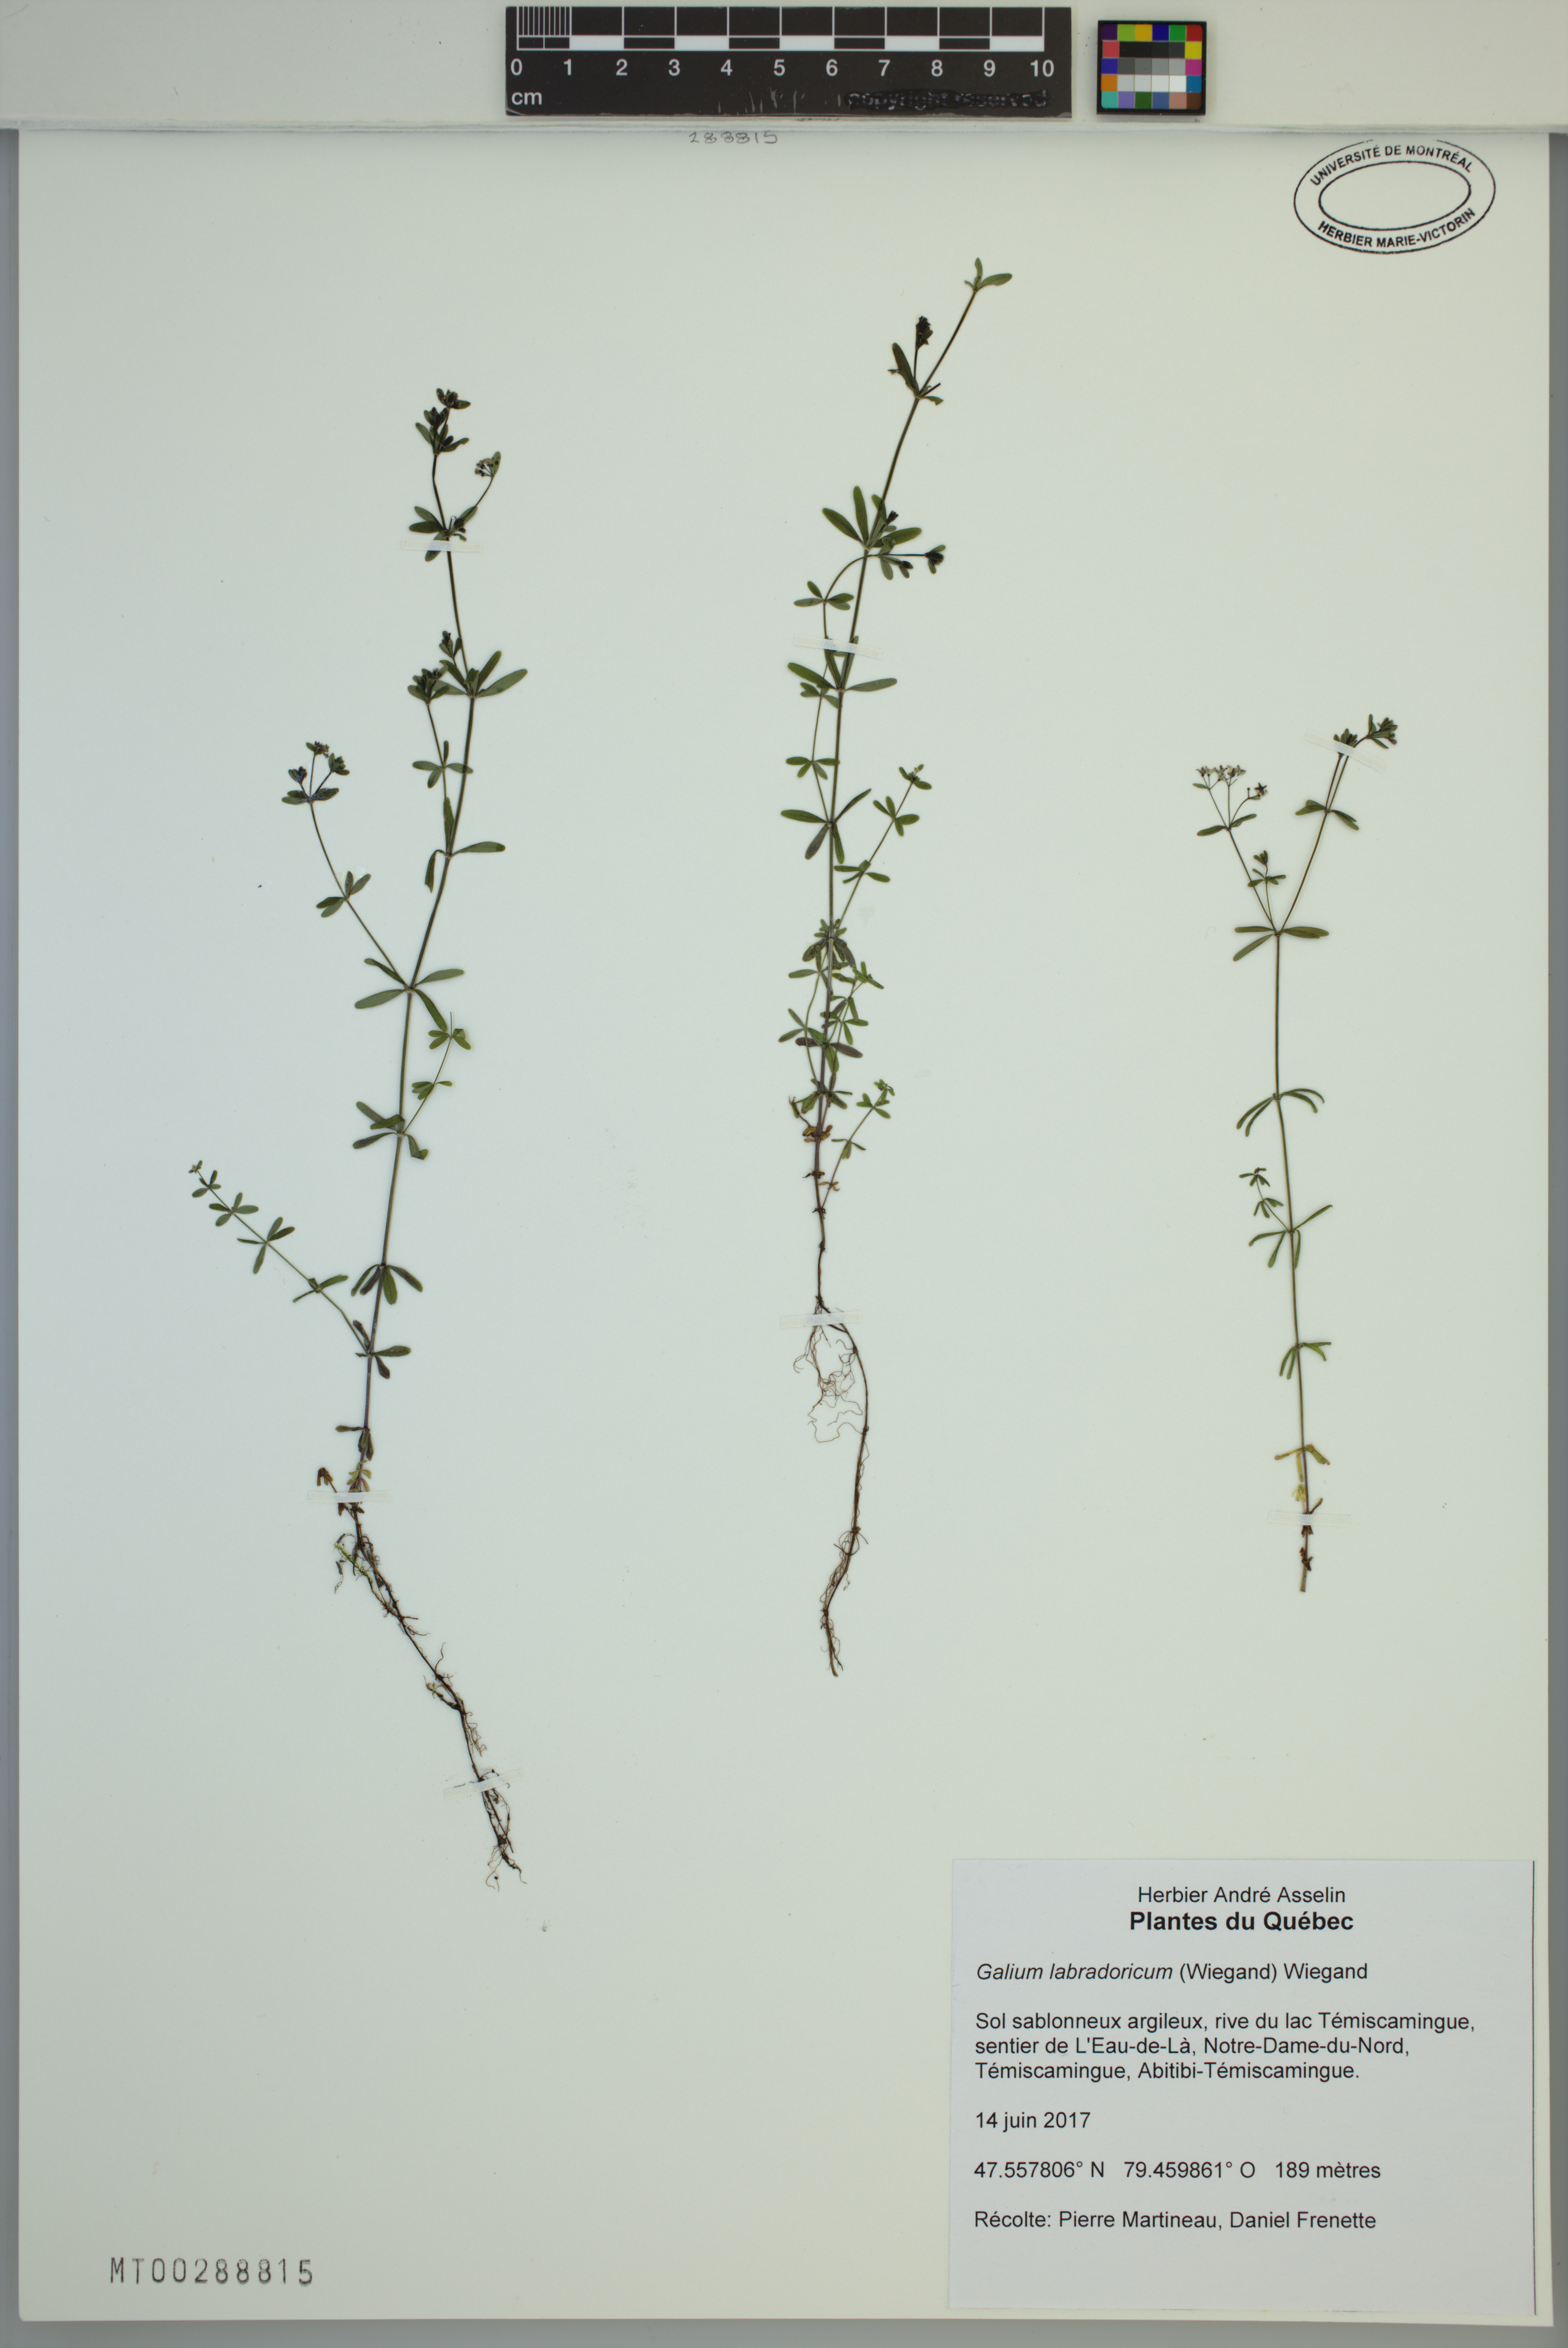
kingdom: Plantae
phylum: Tracheophyta
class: Magnoliopsida
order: Gentianales
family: Rubiaceae
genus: Galium
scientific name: Galium labradoricum
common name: Labrador bedstraw
